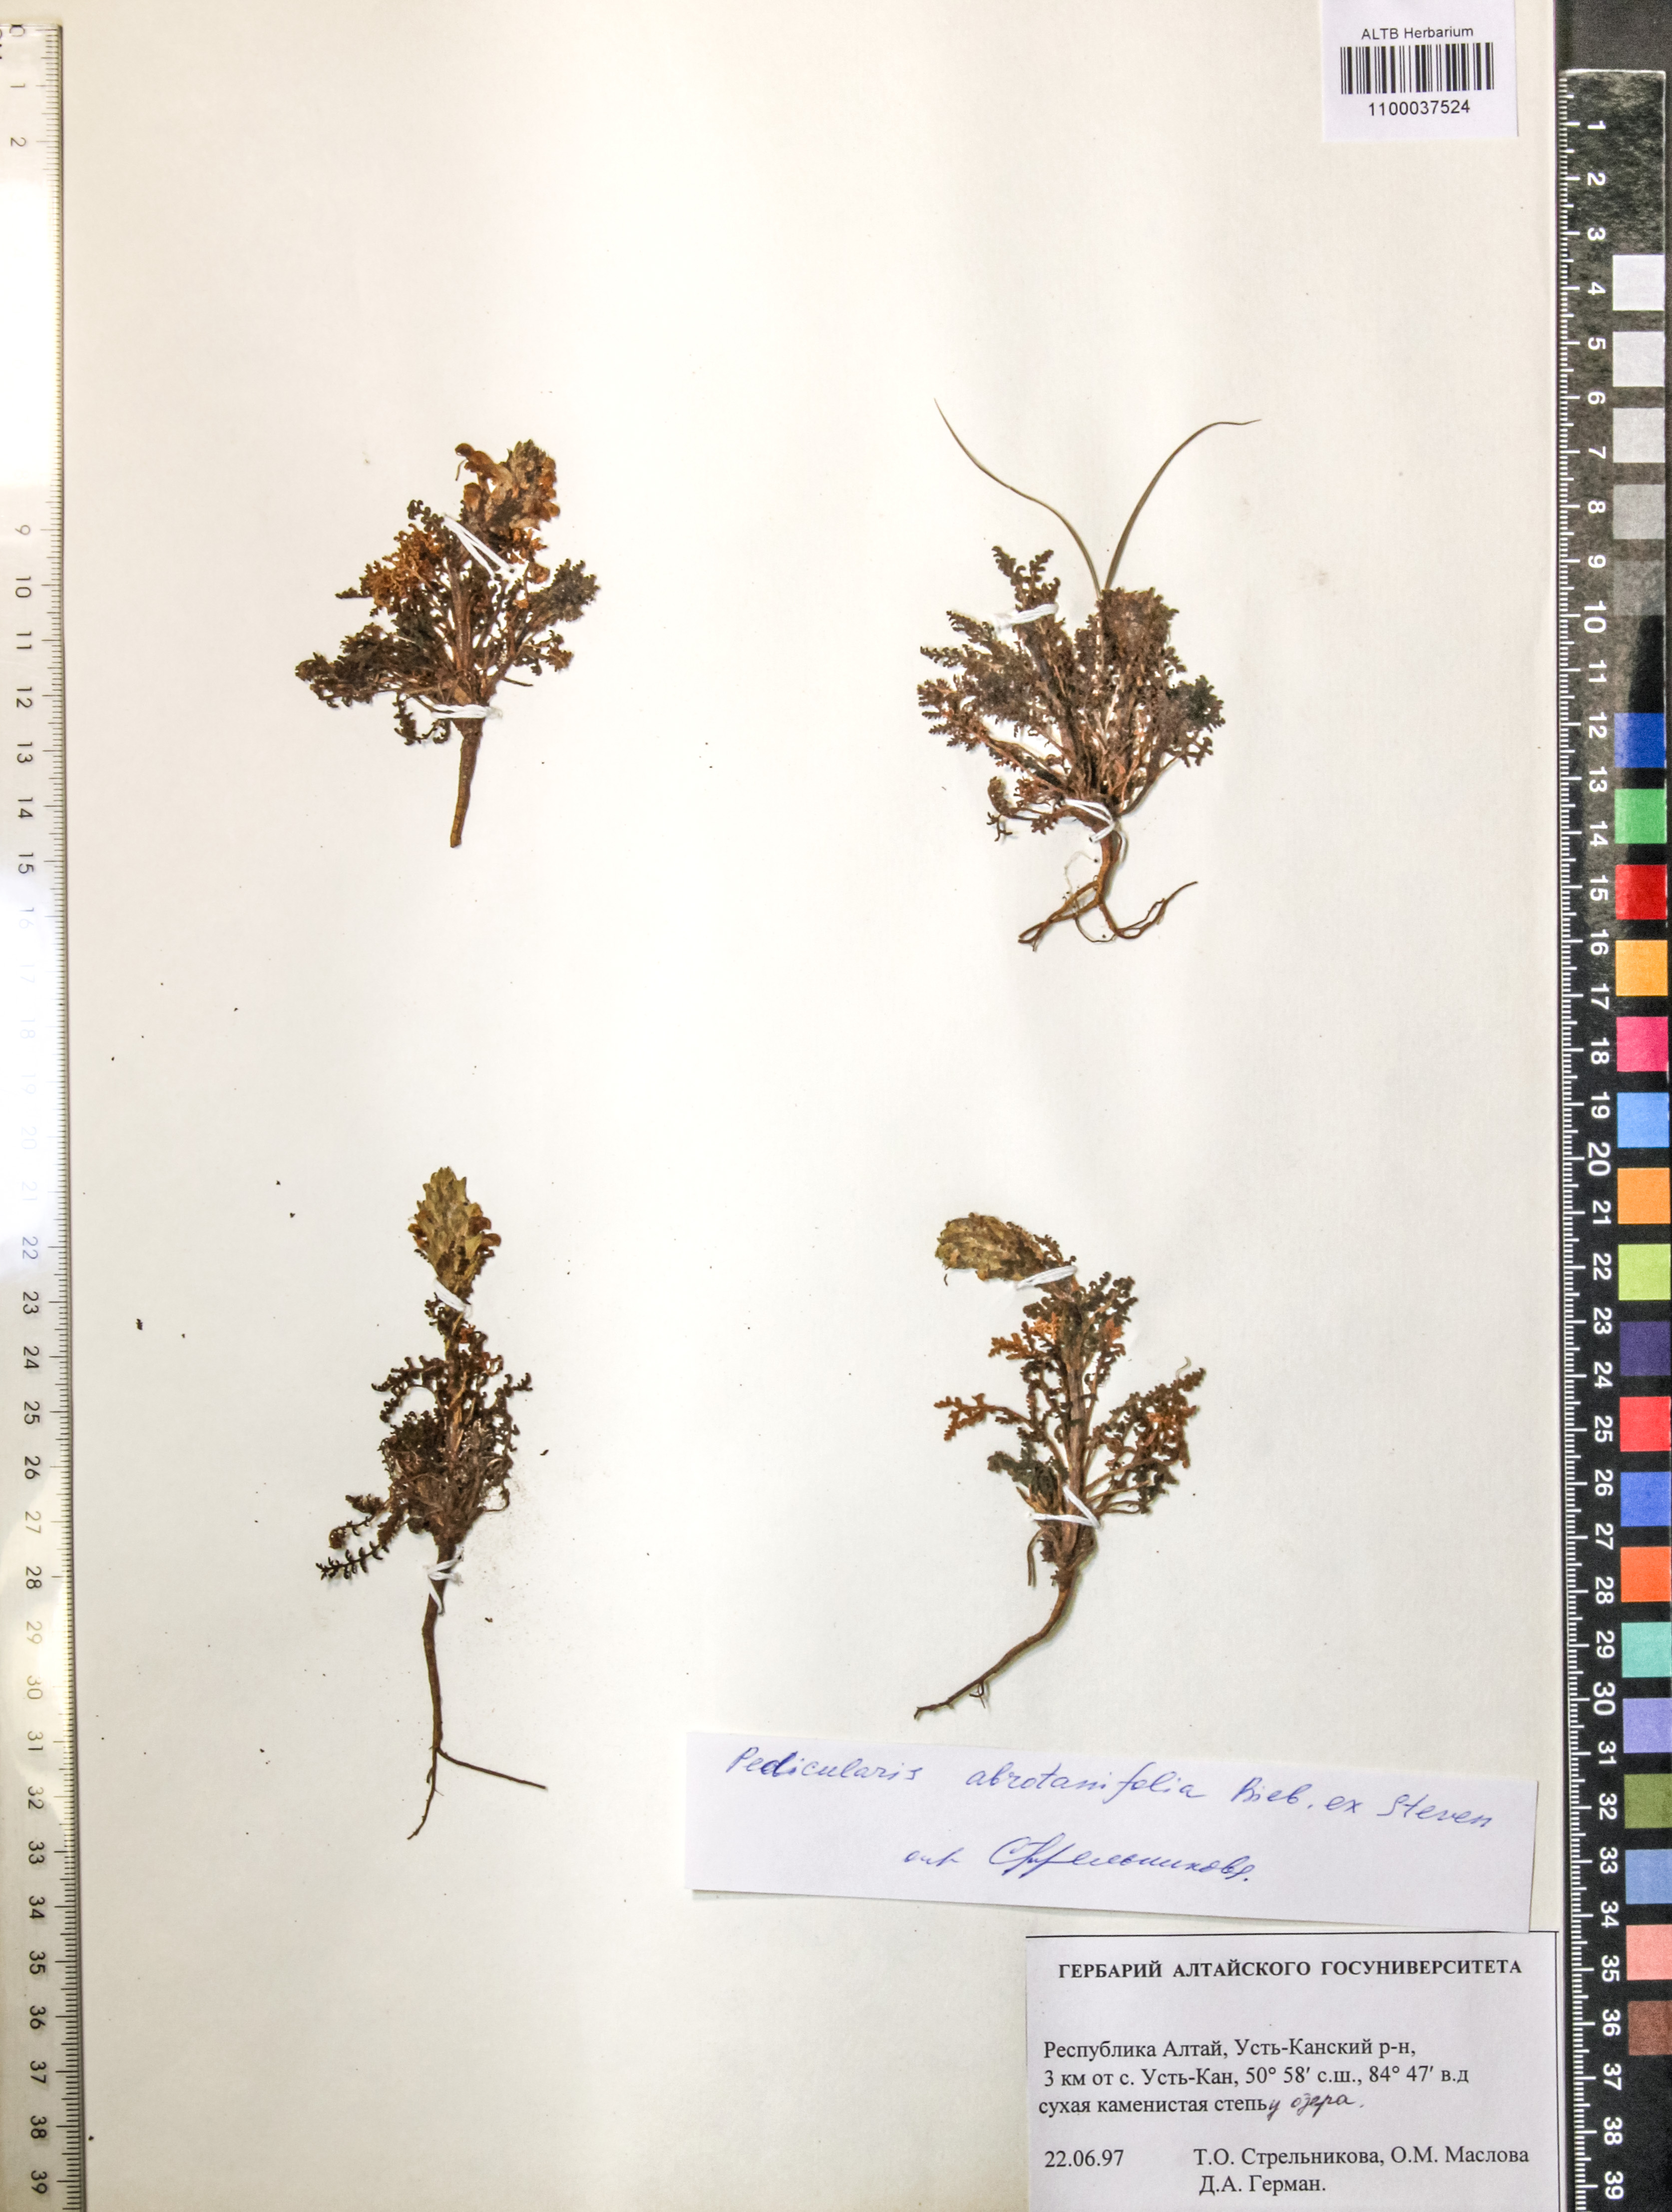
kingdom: Plantae
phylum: Tracheophyta
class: Magnoliopsida
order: Lamiales
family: Orobanchaceae
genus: Pedicularis
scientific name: Pedicularis abrotanifolia
